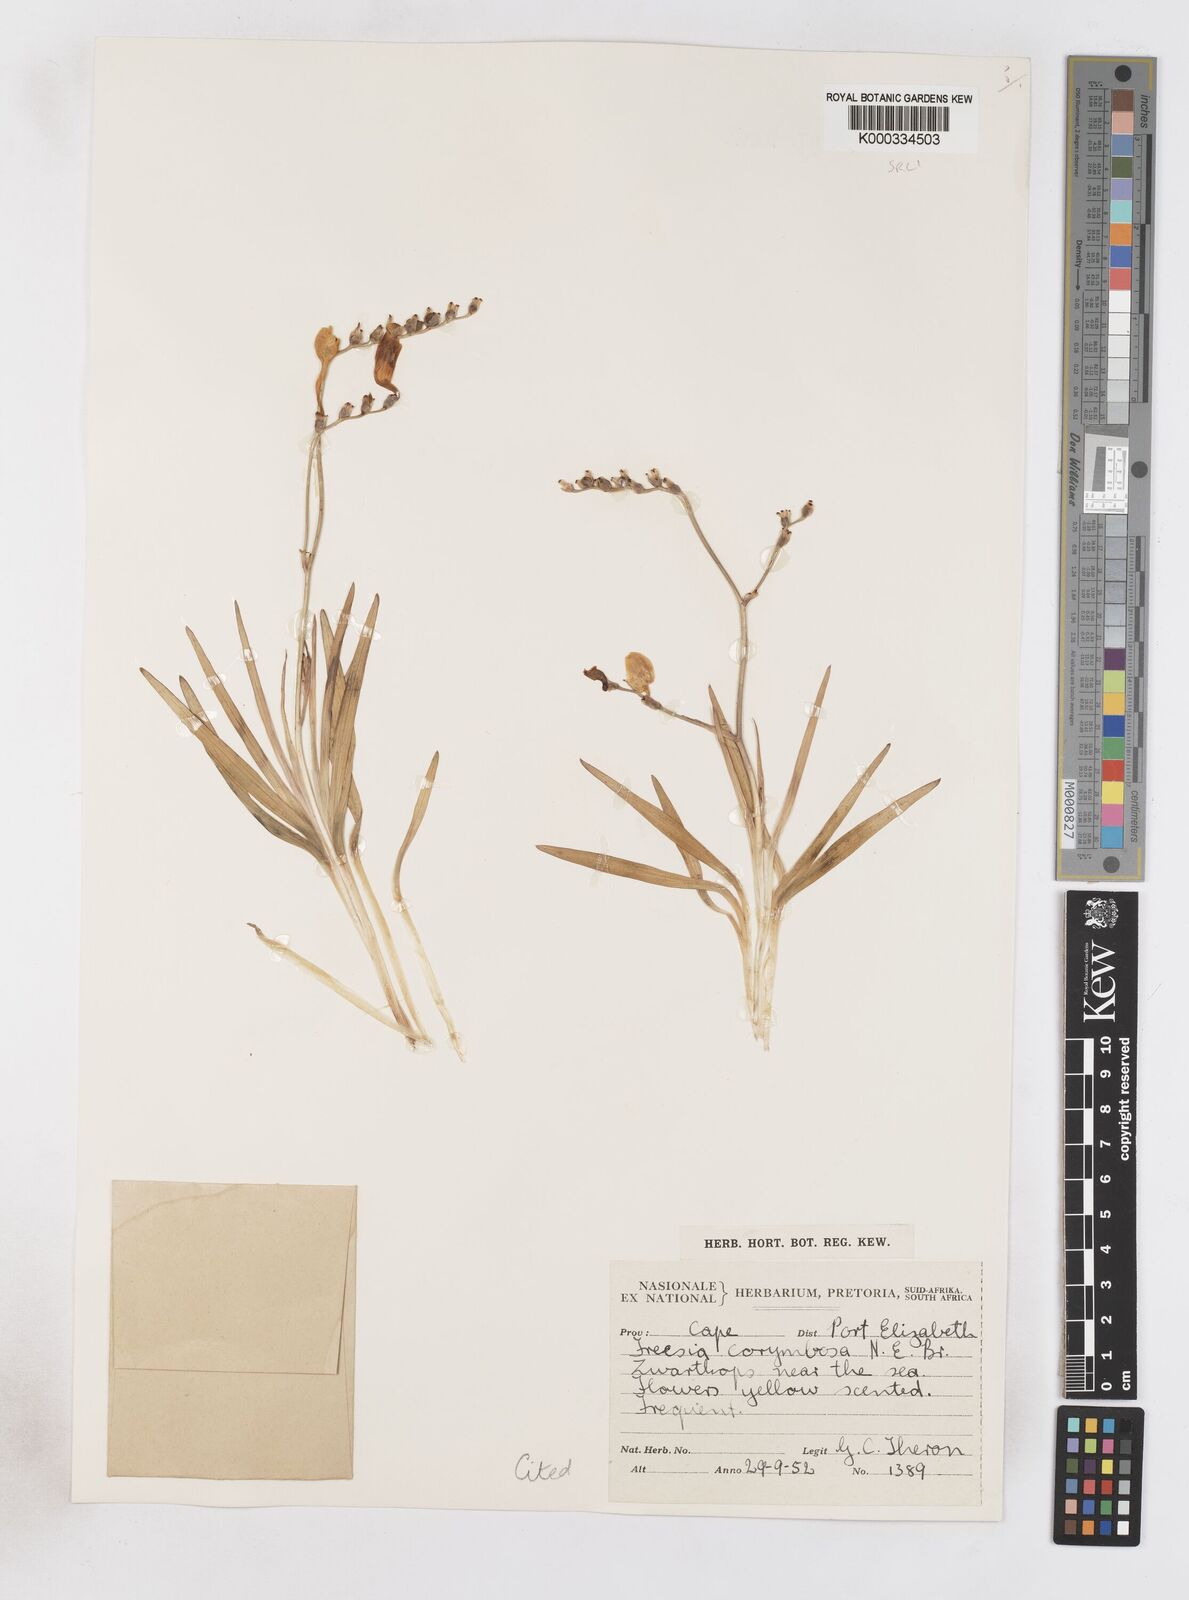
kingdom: Plantae
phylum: Tracheophyta
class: Liliopsida
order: Asparagales
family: Iridaceae
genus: Freesia
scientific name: Freesia corymbosa
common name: Common freesia
